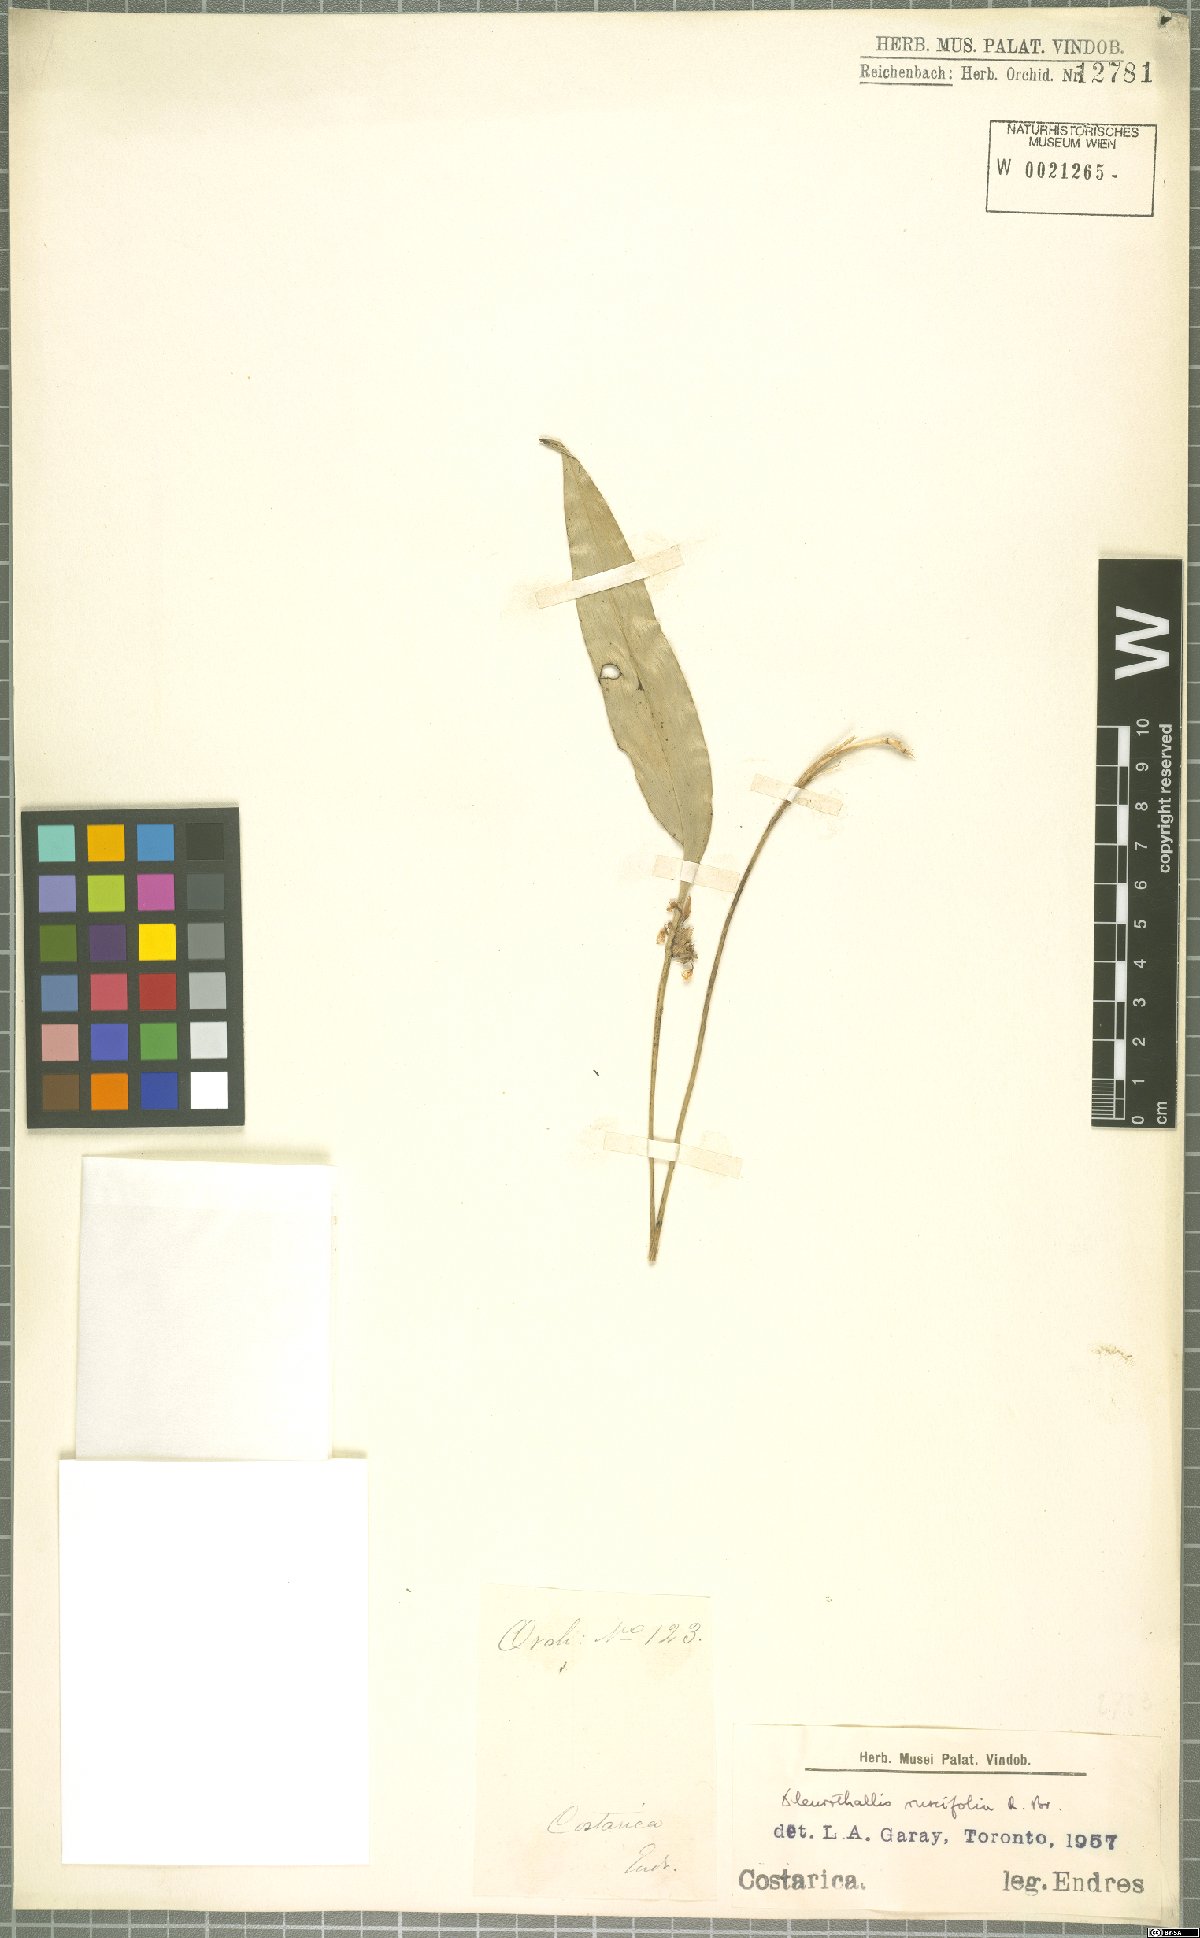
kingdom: Plantae
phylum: Tracheophyta
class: Liliopsida
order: Asparagales
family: Orchidaceae
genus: Pleurothallis
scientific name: Pleurothallis ruscifolia
